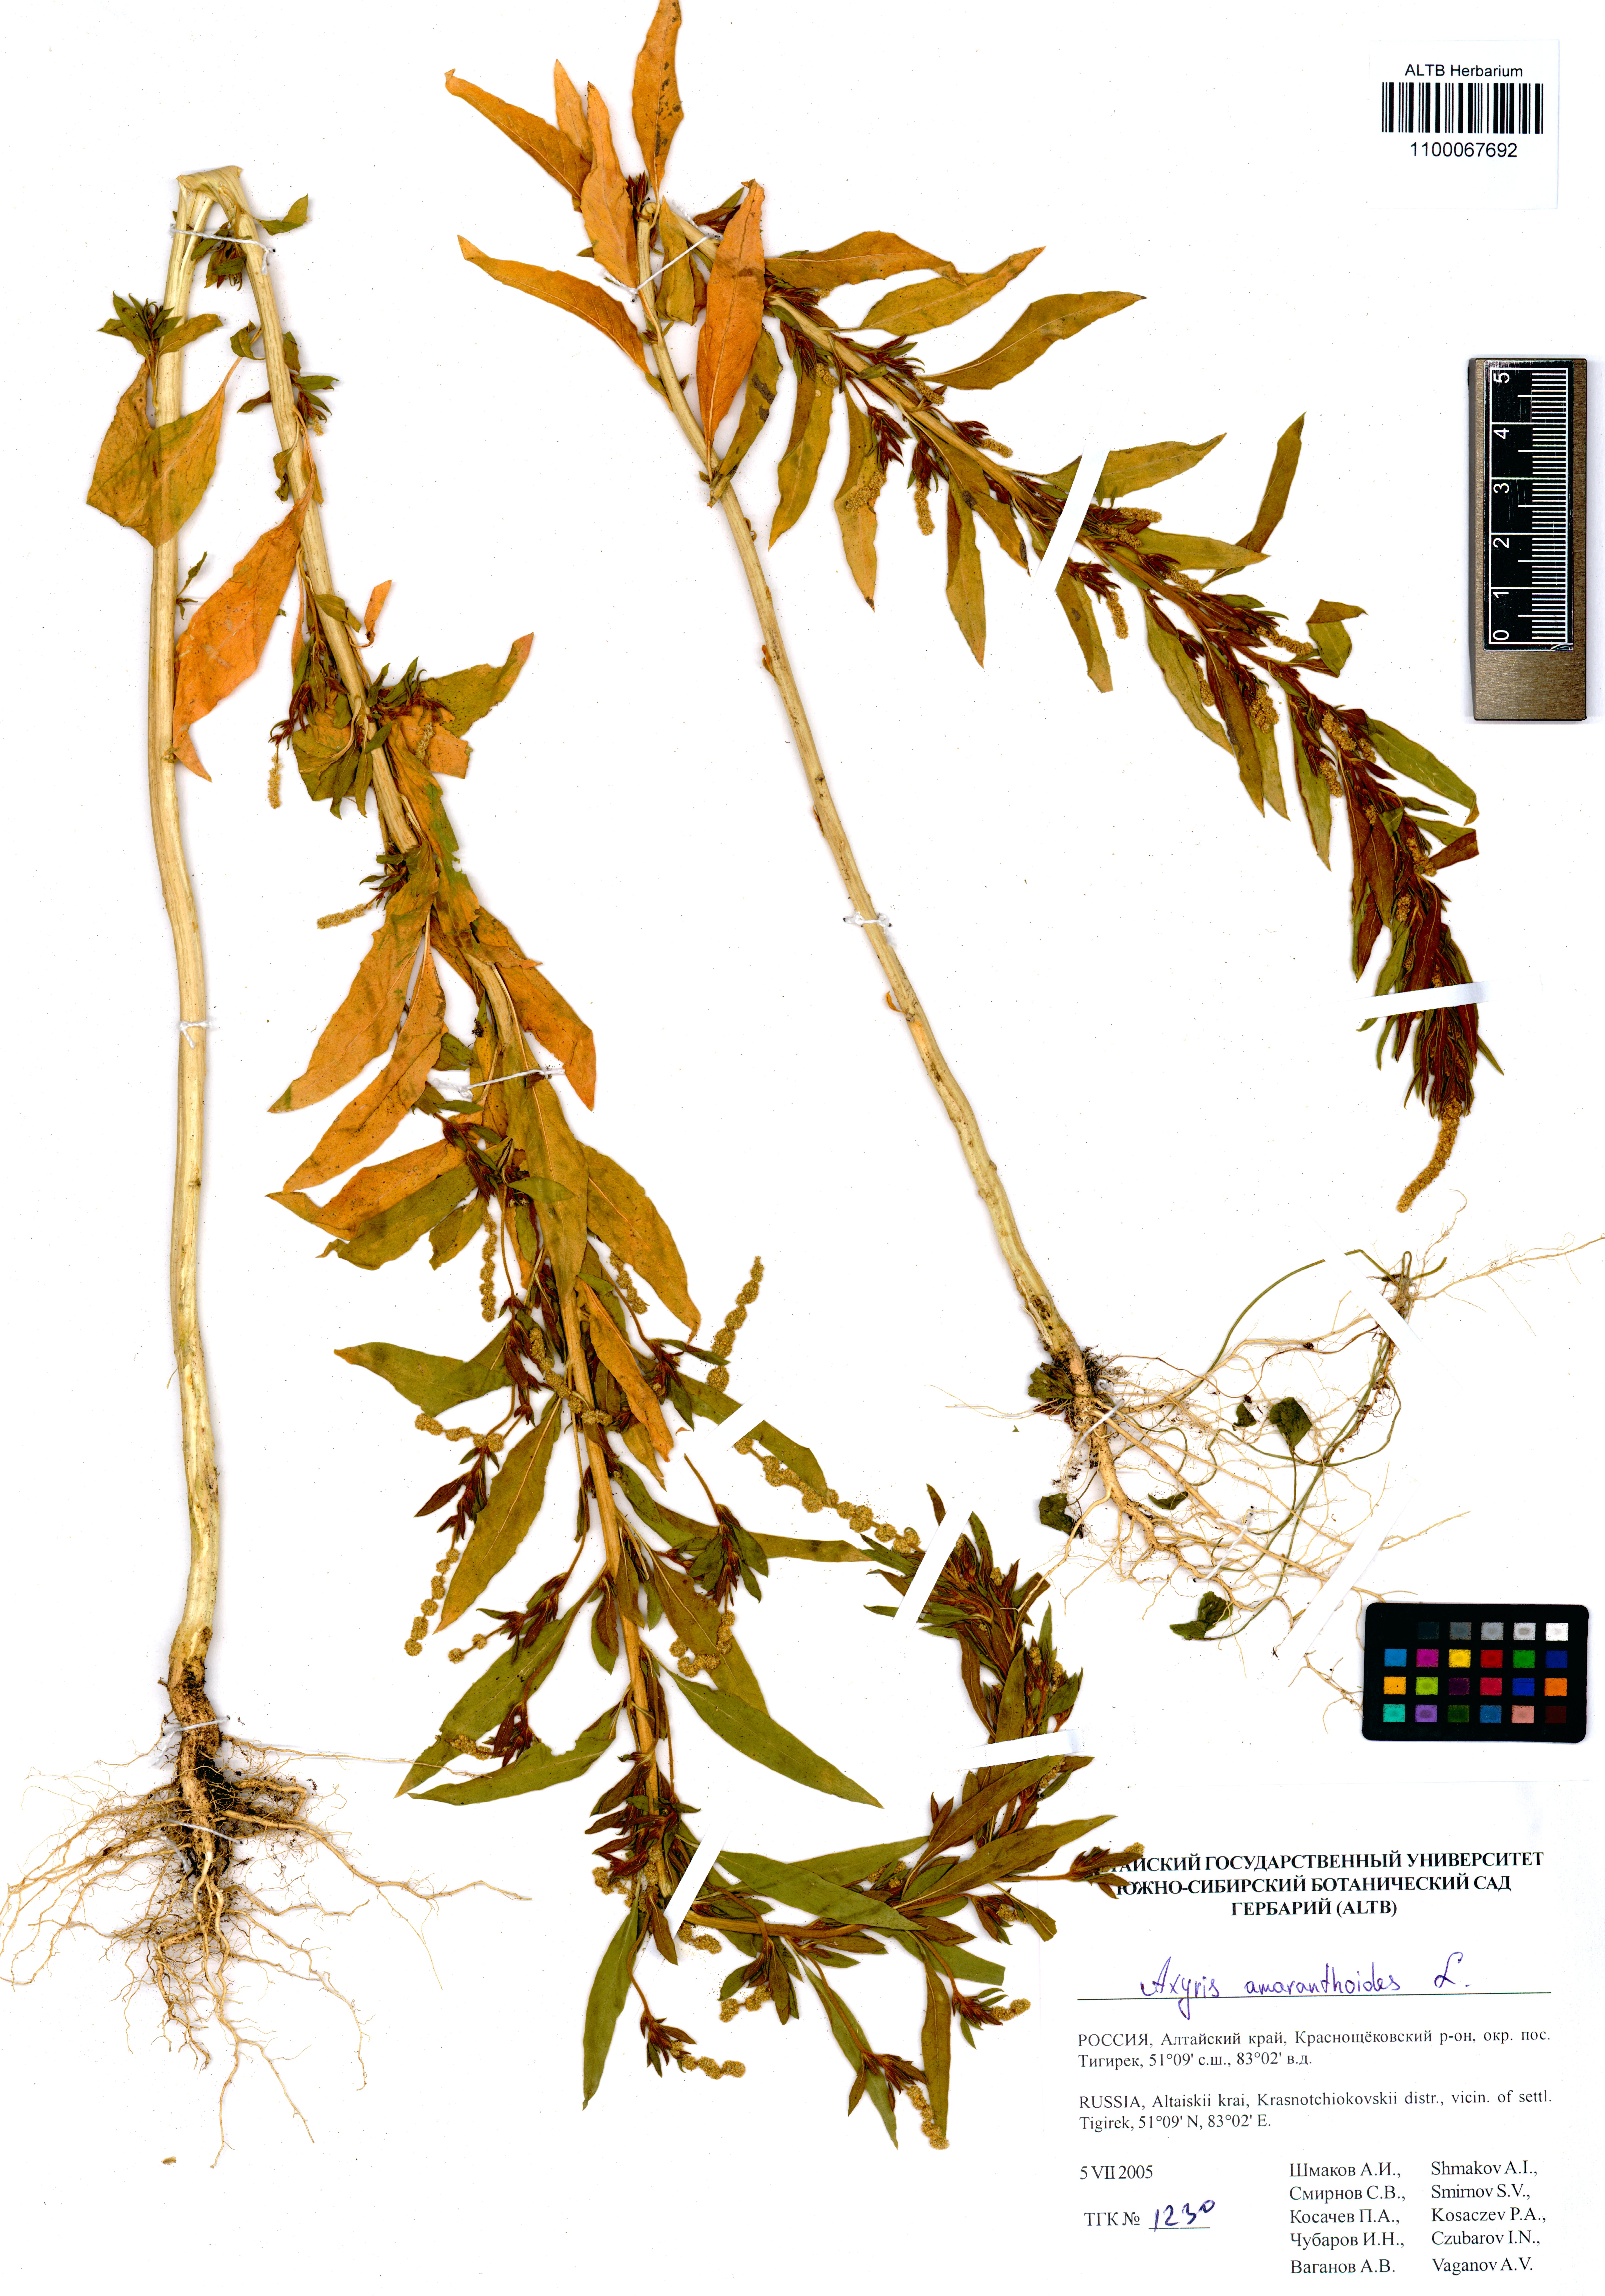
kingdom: Plantae
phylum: Tracheophyta
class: Magnoliopsida
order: Caryophyllales
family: Amaranthaceae
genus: Axyris
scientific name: Axyris amaranthoides
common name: Russian pigweed
